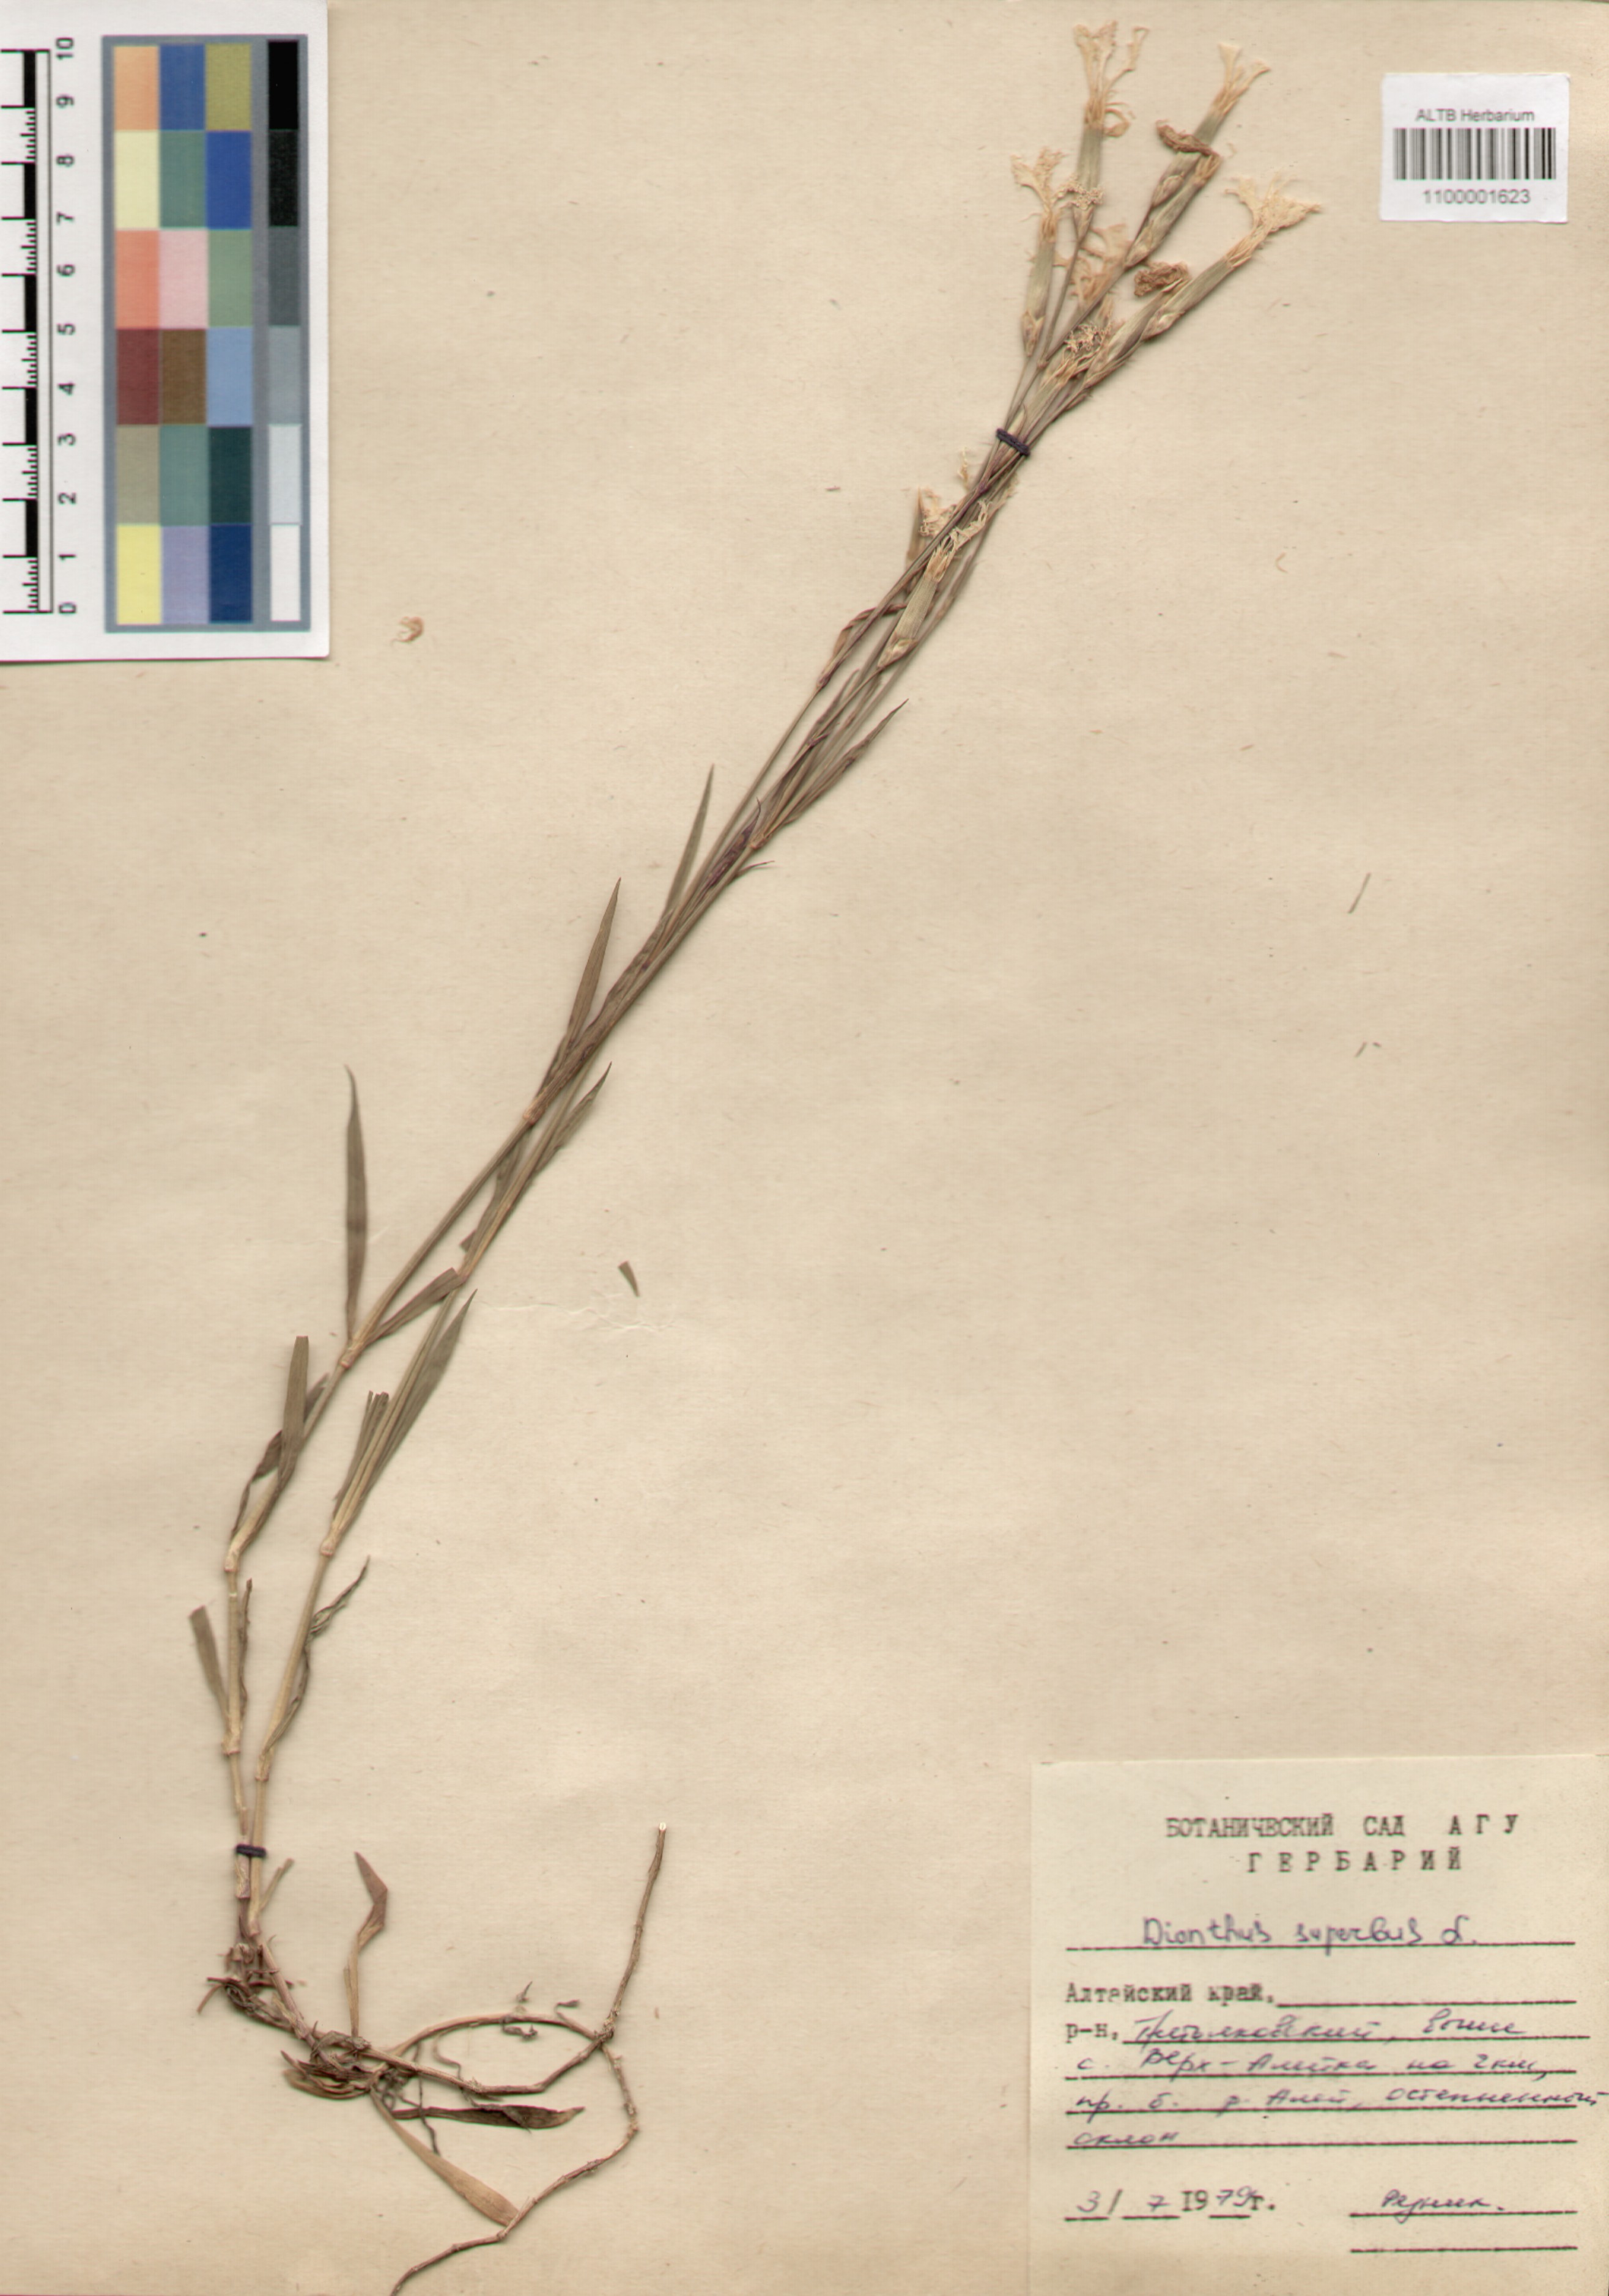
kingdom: Plantae
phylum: Tracheophyta
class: Magnoliopsida
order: Caryophyllales
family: Caryophyllaceae
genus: Dianthus
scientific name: Dianthus superbus
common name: Fringed pink
